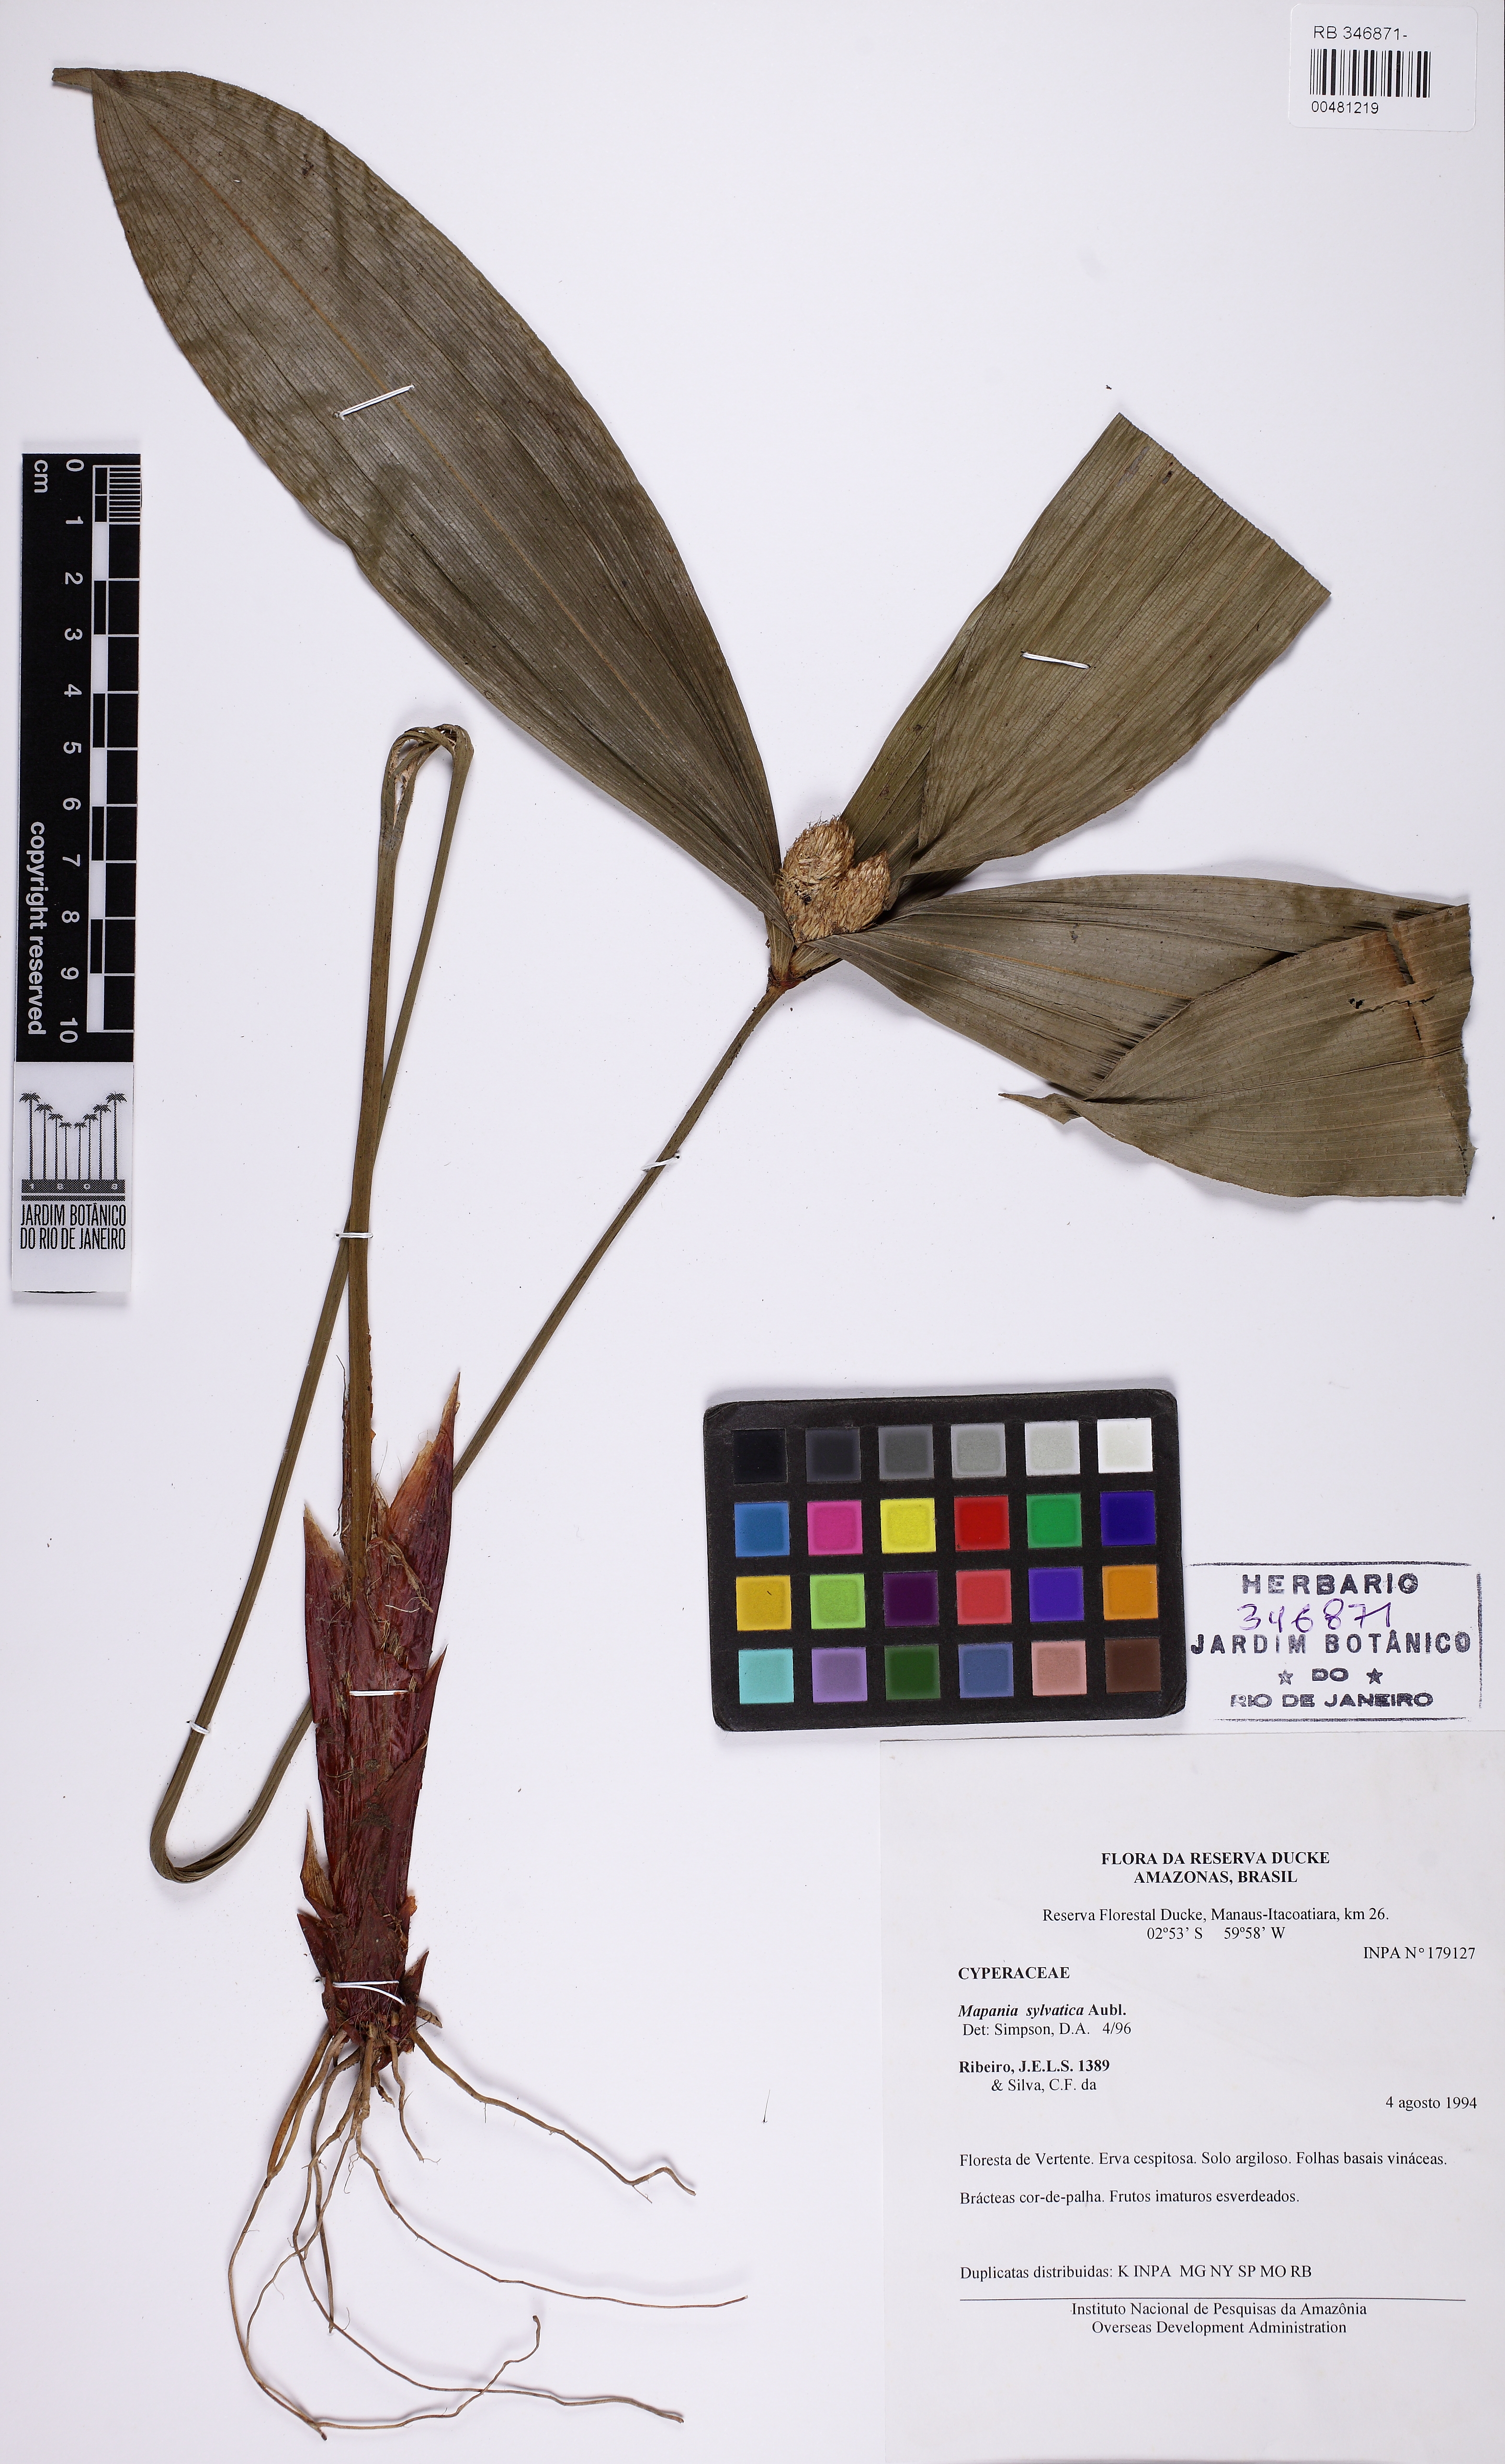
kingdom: Plantae
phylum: Tracheophyta
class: Liliopsida
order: Poales
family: Cyperaceae
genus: Mapania
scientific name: Mapania sylvatica
